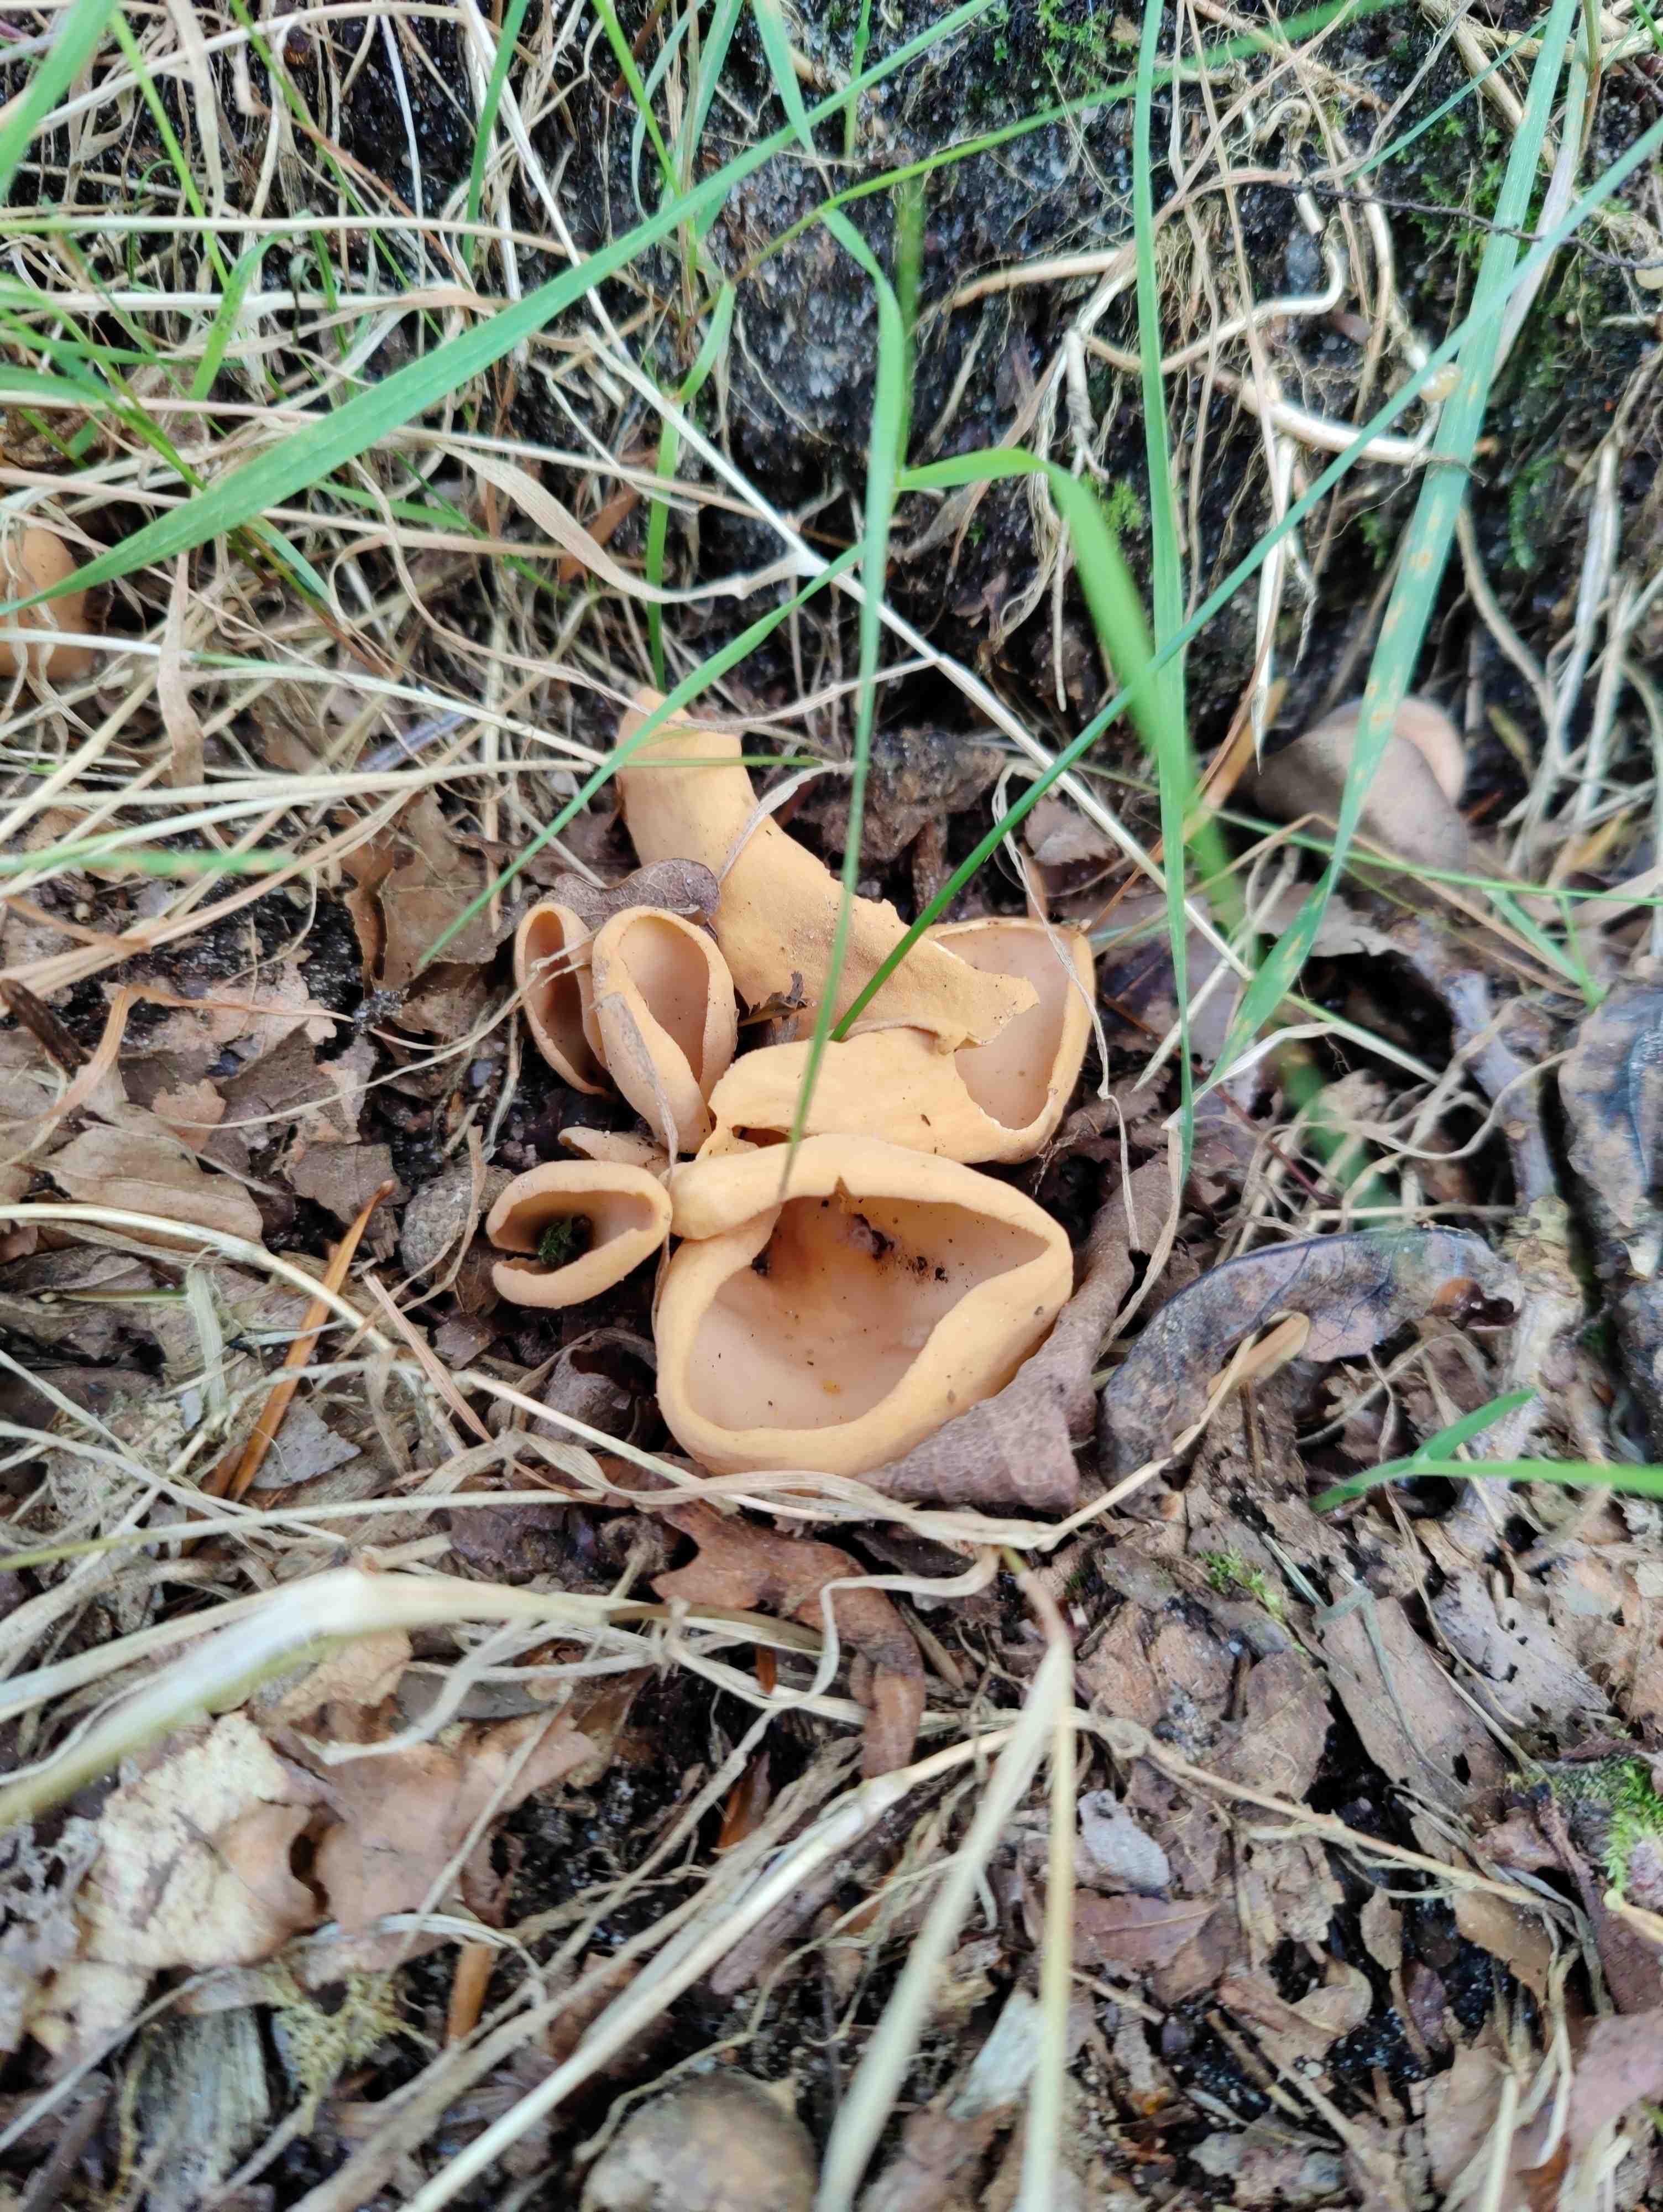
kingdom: Fungi
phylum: Ascomycota
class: Pezizomycetes
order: Pezizales
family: Otideaceae
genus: Otidea
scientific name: Otidea onotica
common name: æsel-ørebæger
